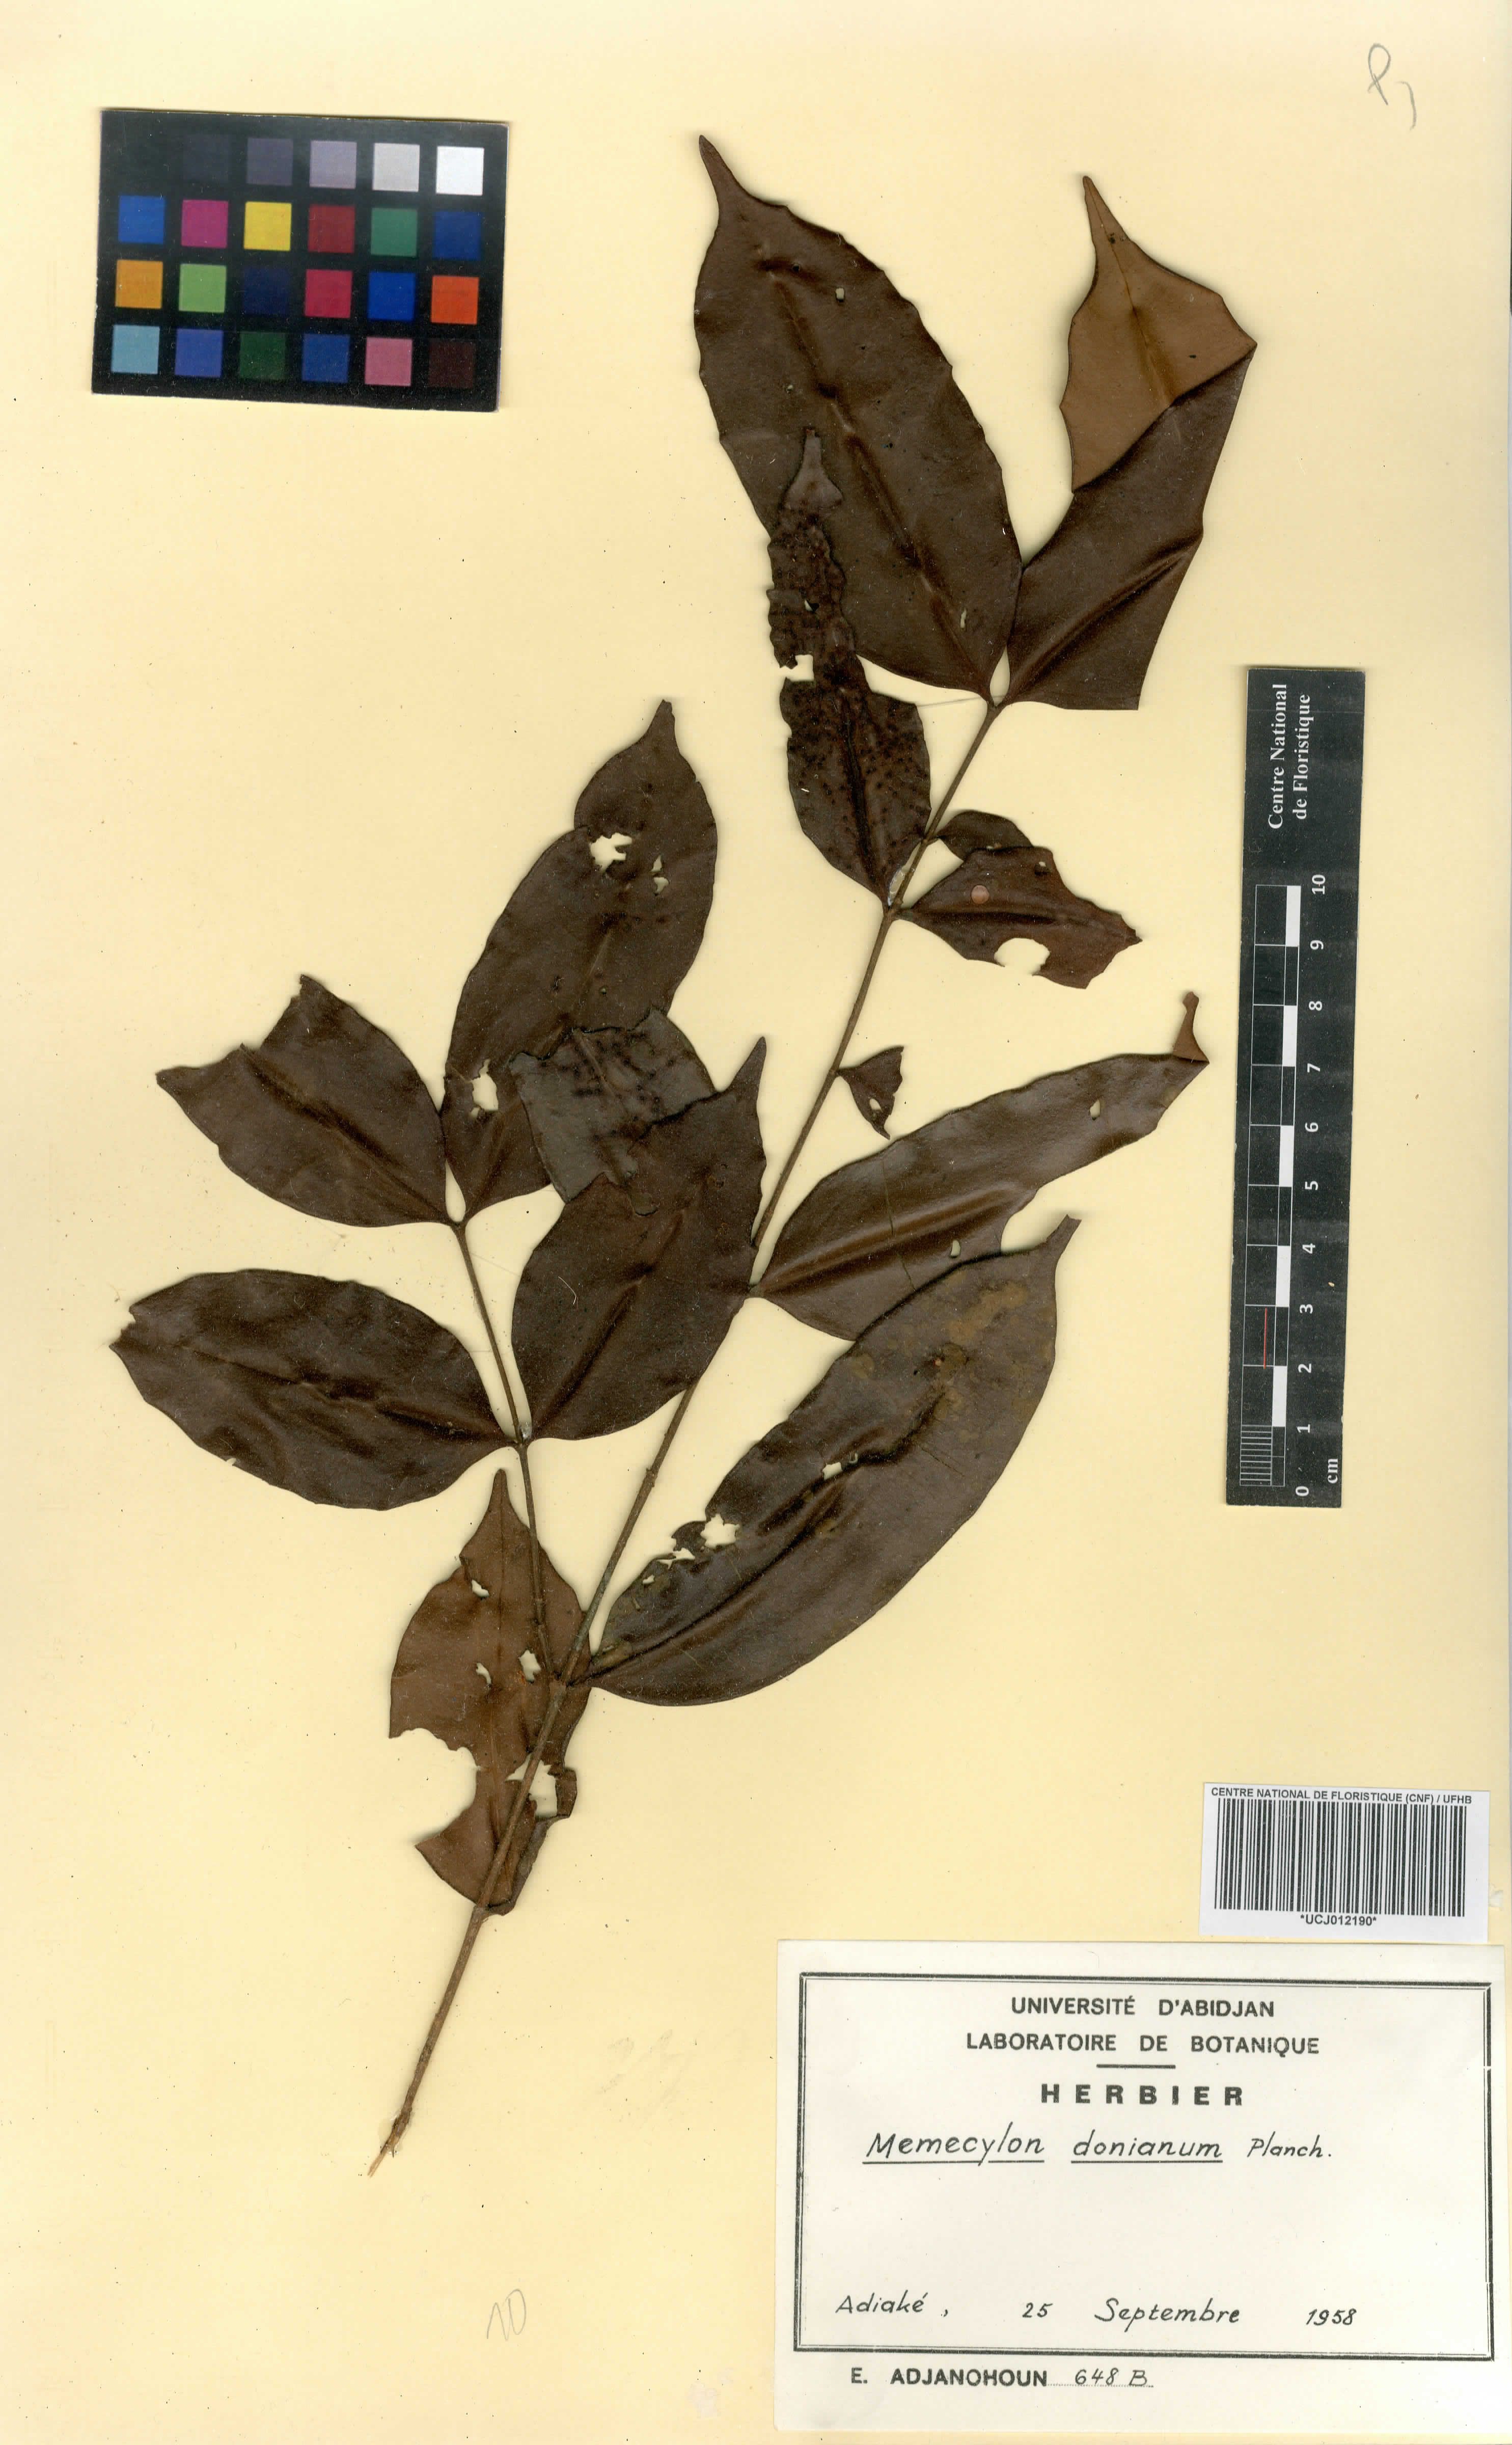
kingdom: Plantae
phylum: Tracheophyta
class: Magnoliopsida
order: Myrtales
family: Melastomataceae
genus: Memecylon
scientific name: Memecylon lateriflorum
